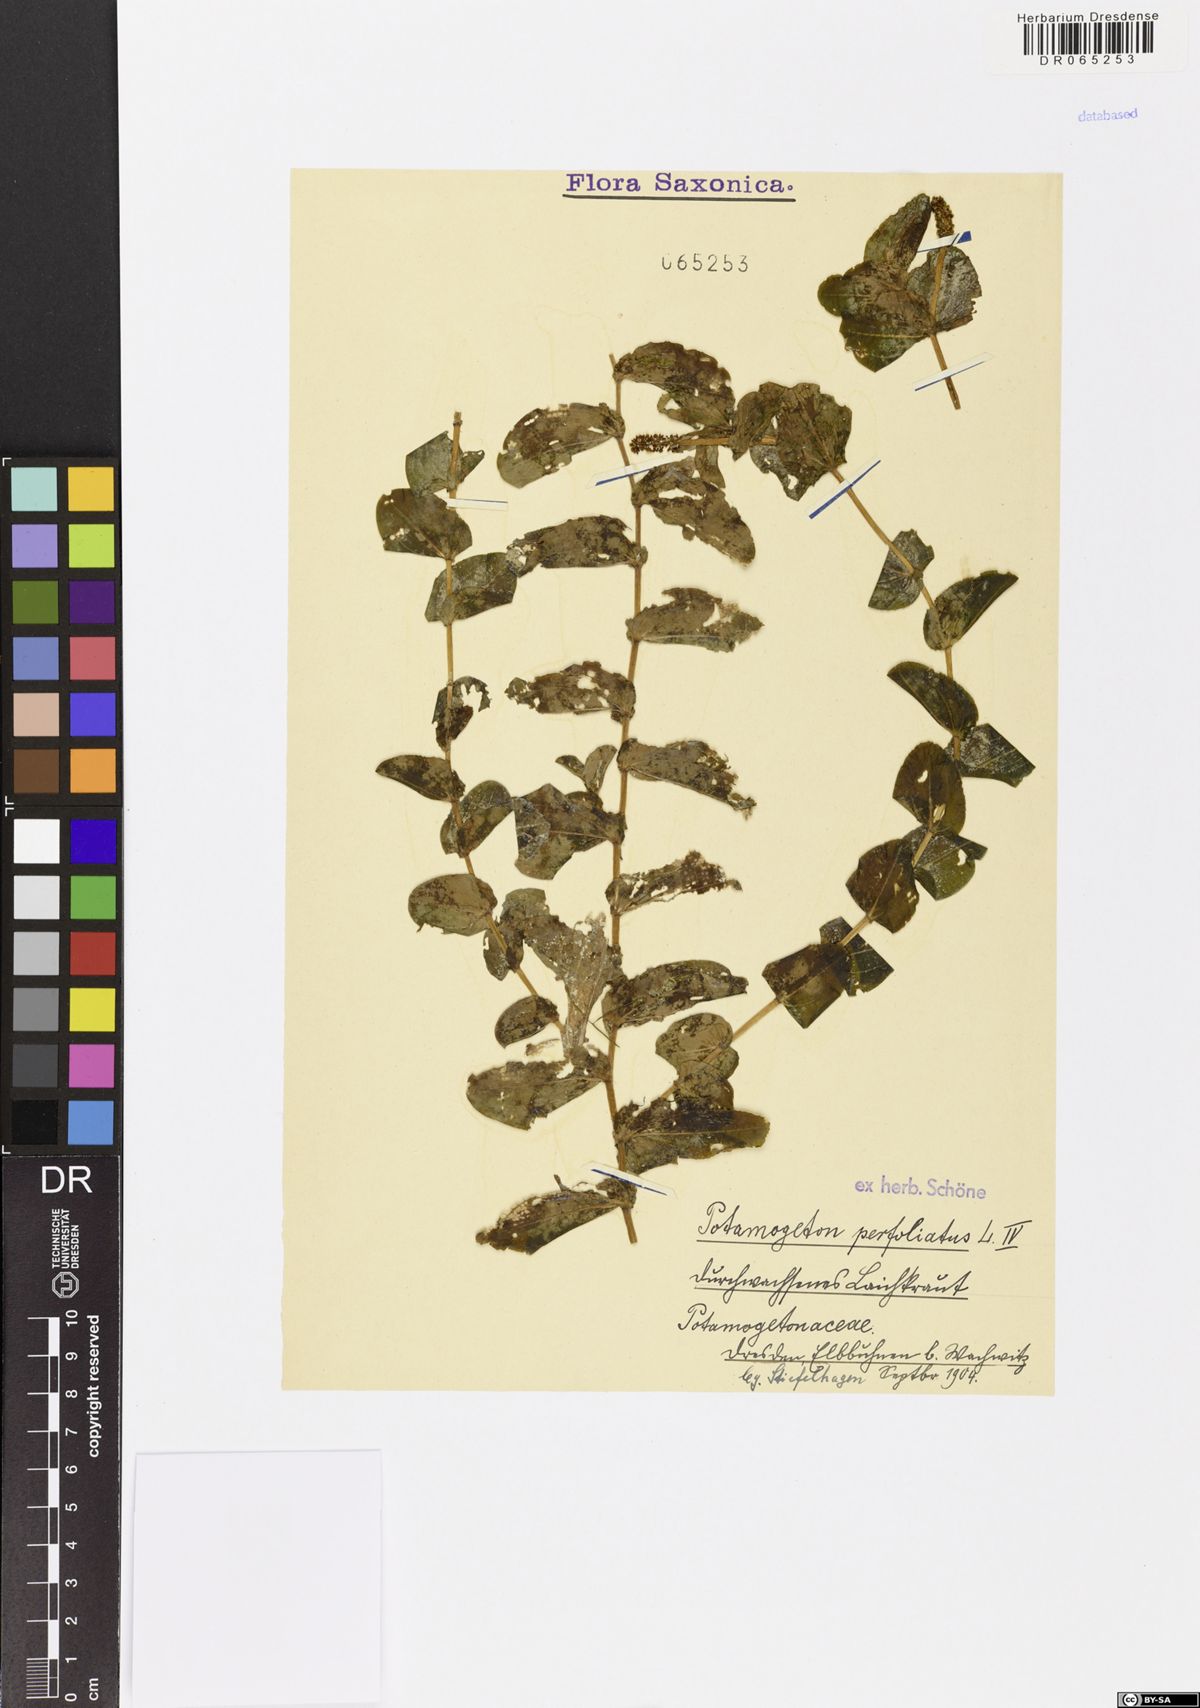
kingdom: Plantae
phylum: Tracheophyta
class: Liliopsida
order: Alismatales
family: Potamogetonaceae
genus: Potamogeton
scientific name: Potamogeton perfoliatus
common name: Perfoliate pondweed
